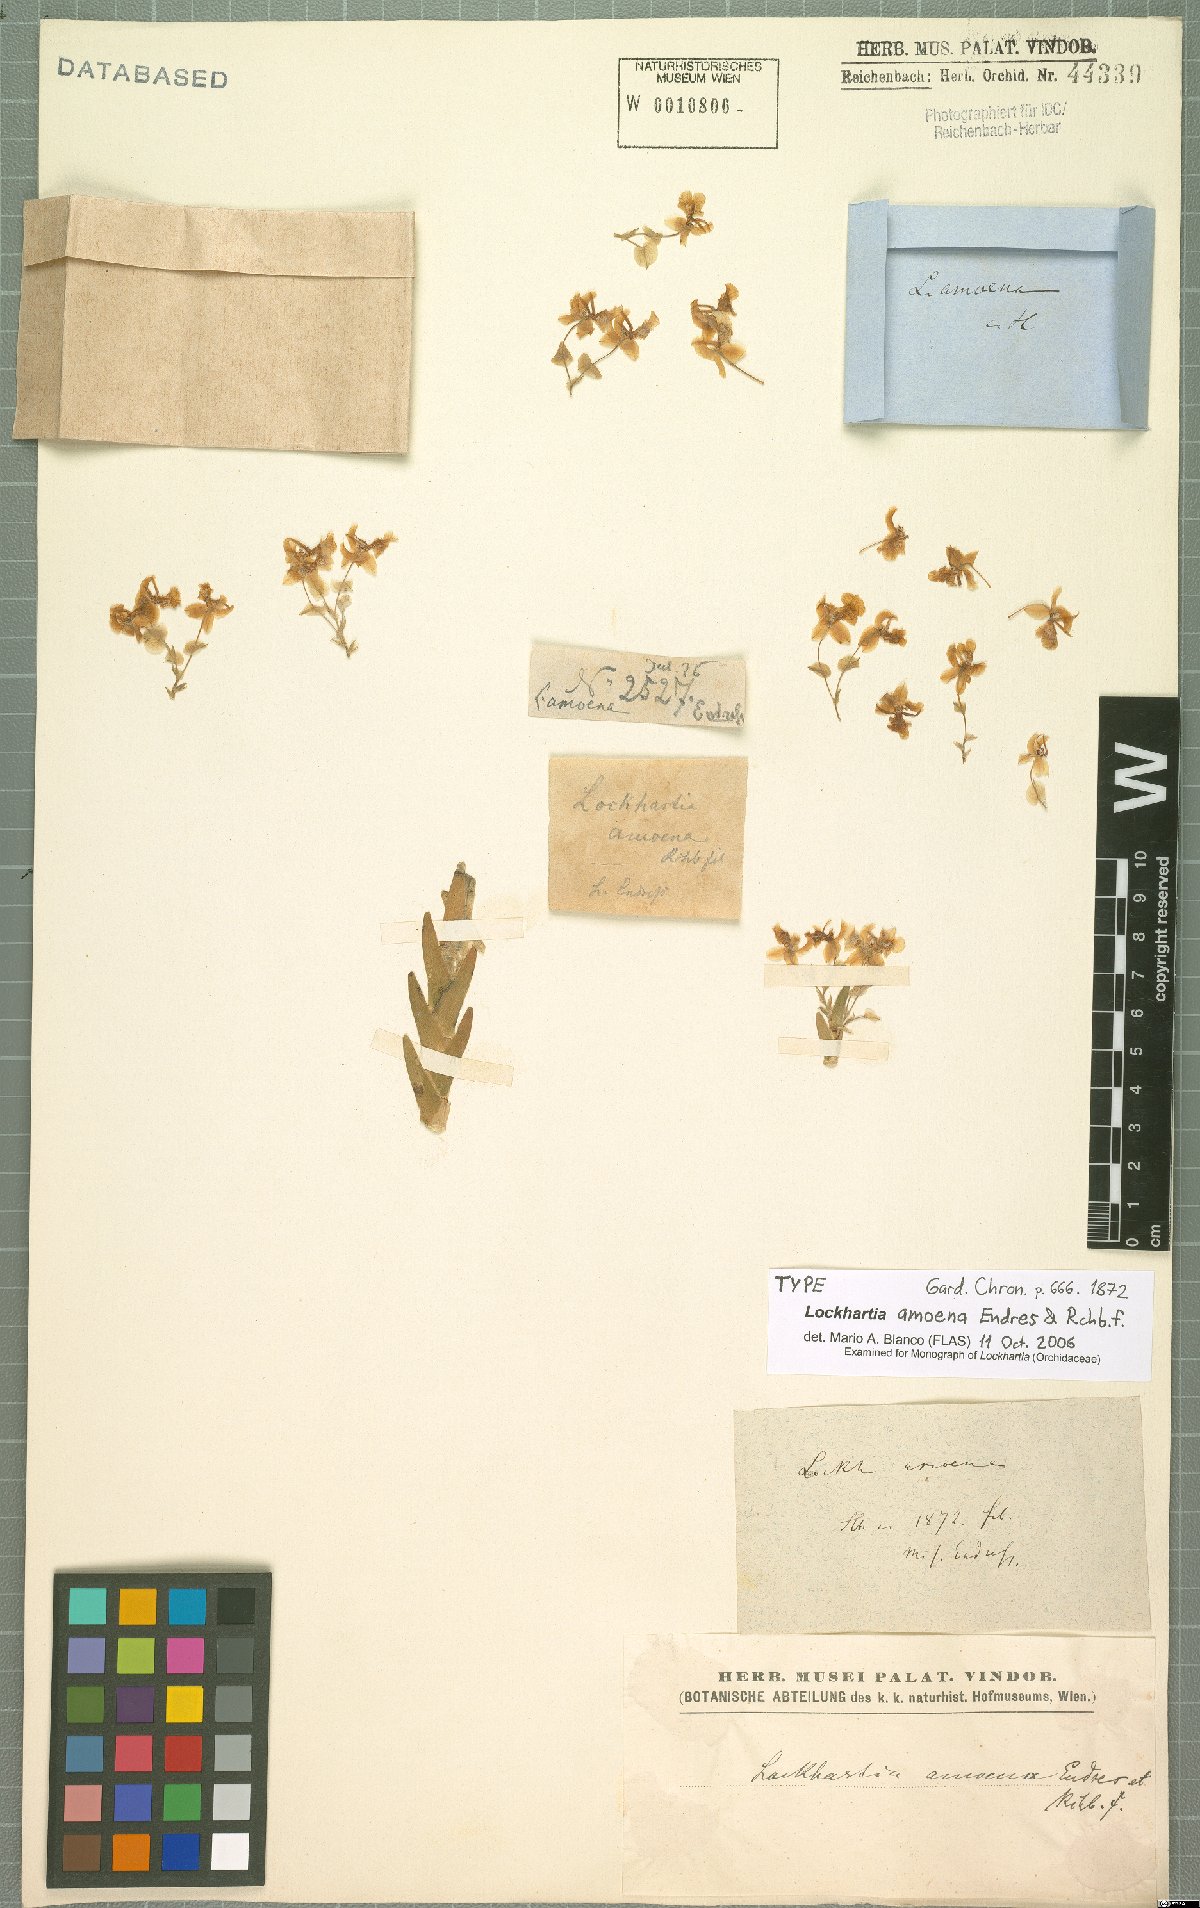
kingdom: Plantae
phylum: Tracheophyta
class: Liliopsida
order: Asparagales
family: Orchidaceae
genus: Lockhartia
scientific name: Lockhartia amoena
